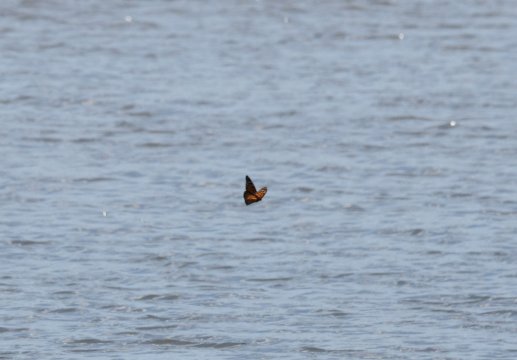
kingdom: Animalia
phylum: Arthropoda
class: Insecta
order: Lepidoptera
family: Nymphalidae
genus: Danaus
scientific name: Danaus plexippus
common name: Monarch
